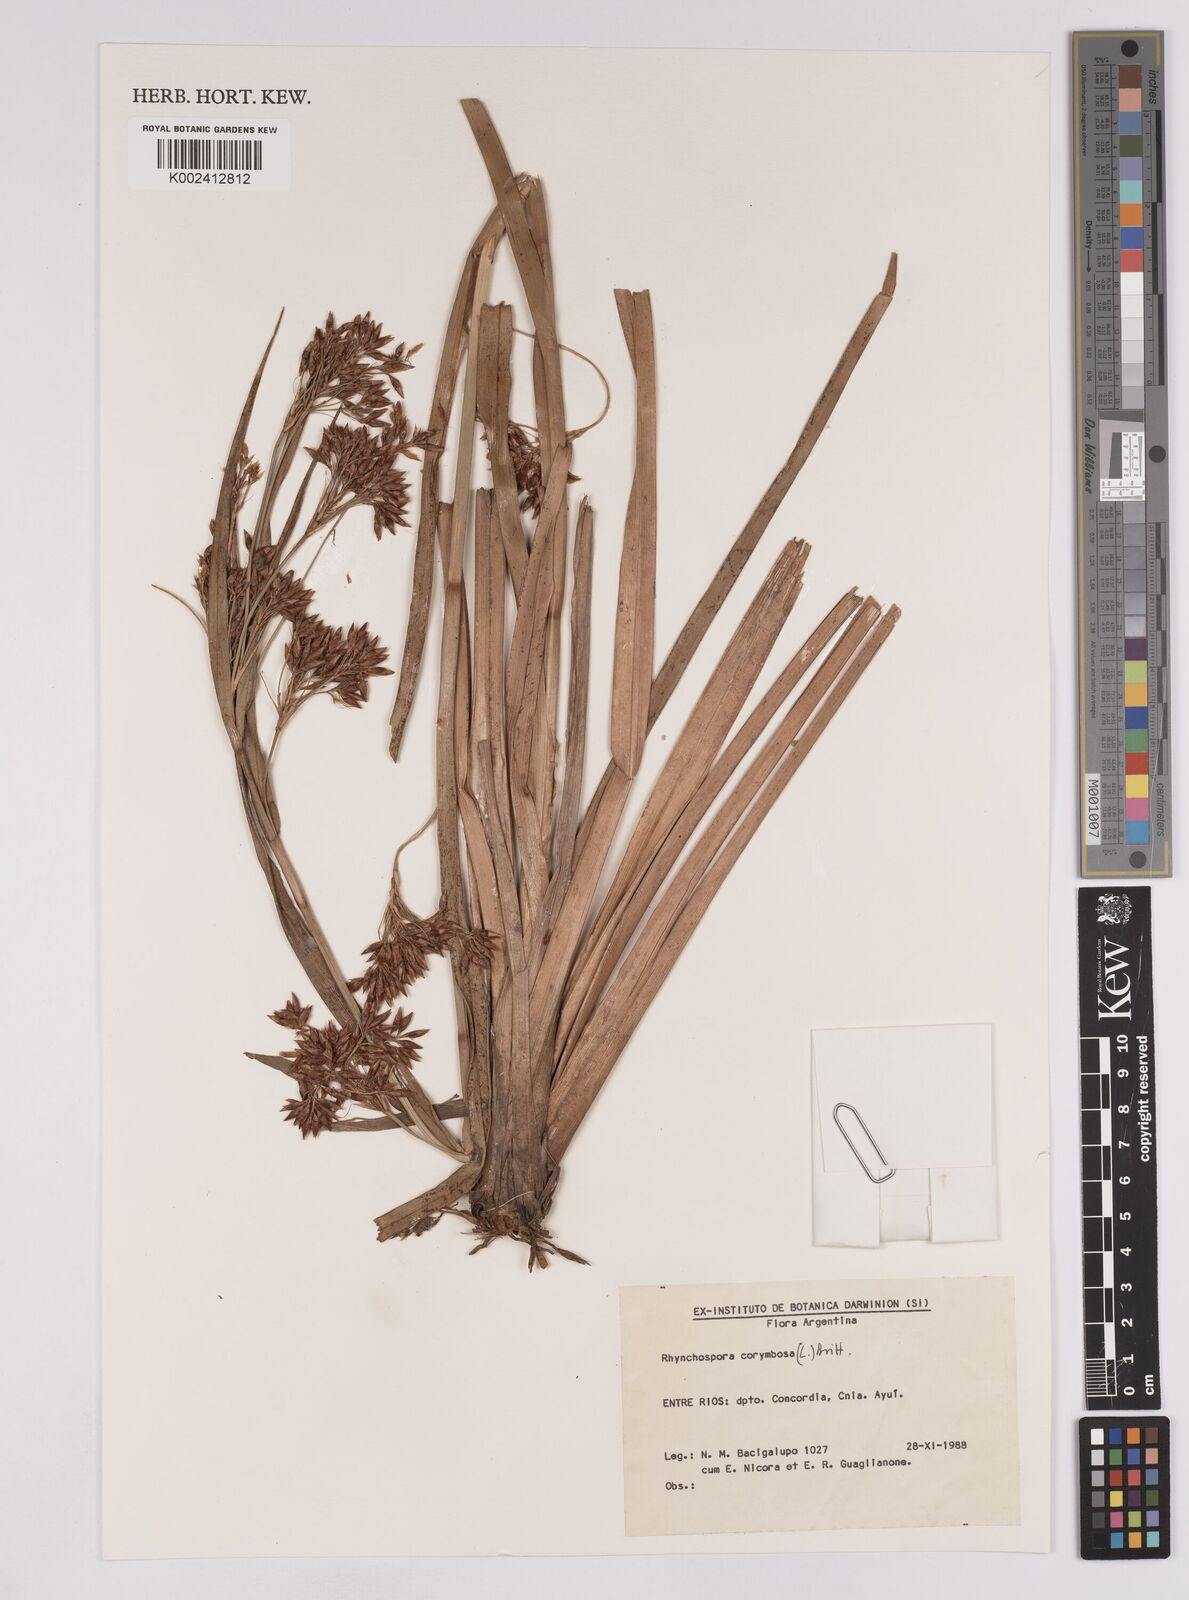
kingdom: Plantae
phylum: Tracheophyta
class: Liliopsida
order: Poales
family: Cyperaceae
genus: Rhynchospora
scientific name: Rhynchospora corymbosa
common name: Golden beak sedge
